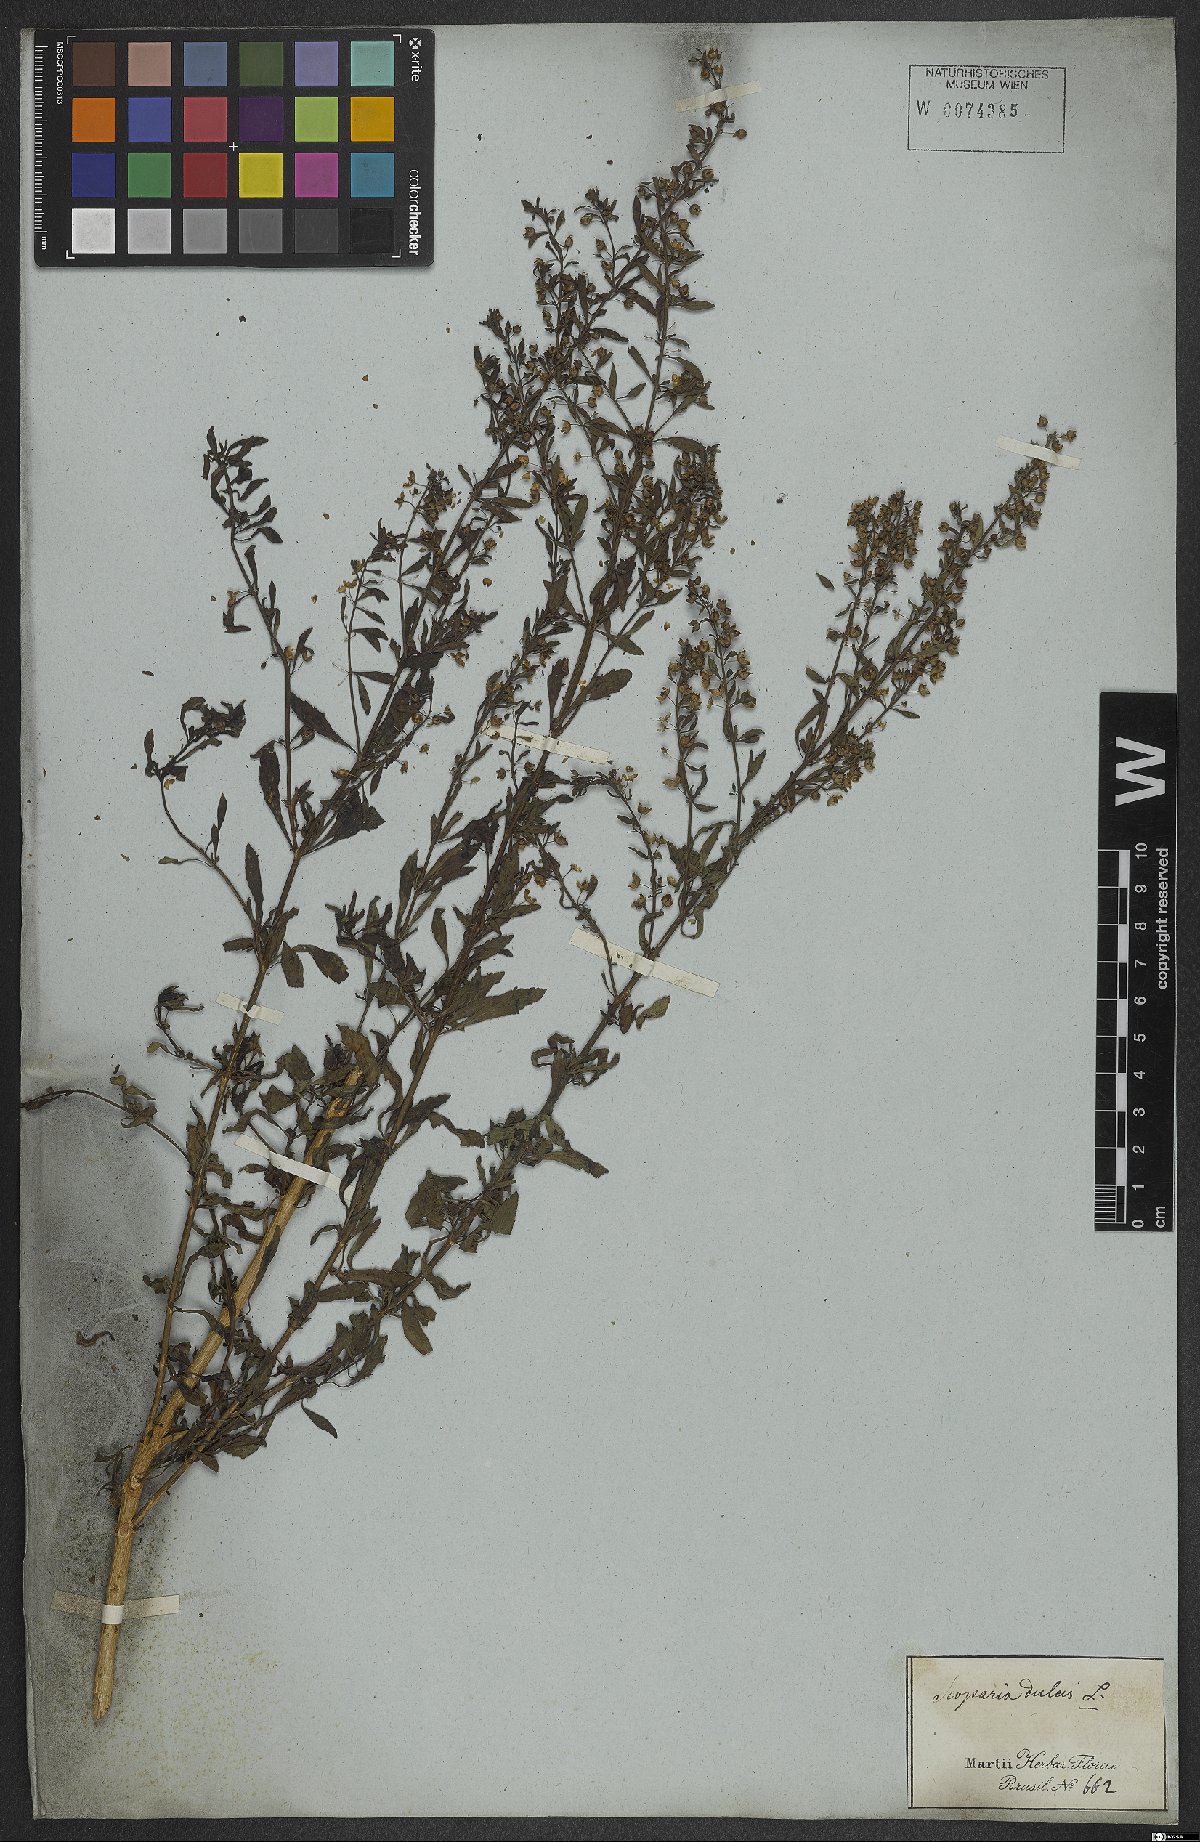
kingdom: Plantae
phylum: Tracheophyta
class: Magnoliopsida
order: Lamiales
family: Plantaginaceae
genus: Scoparia
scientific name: Scoparia dulcis
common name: Scoparia-weed
